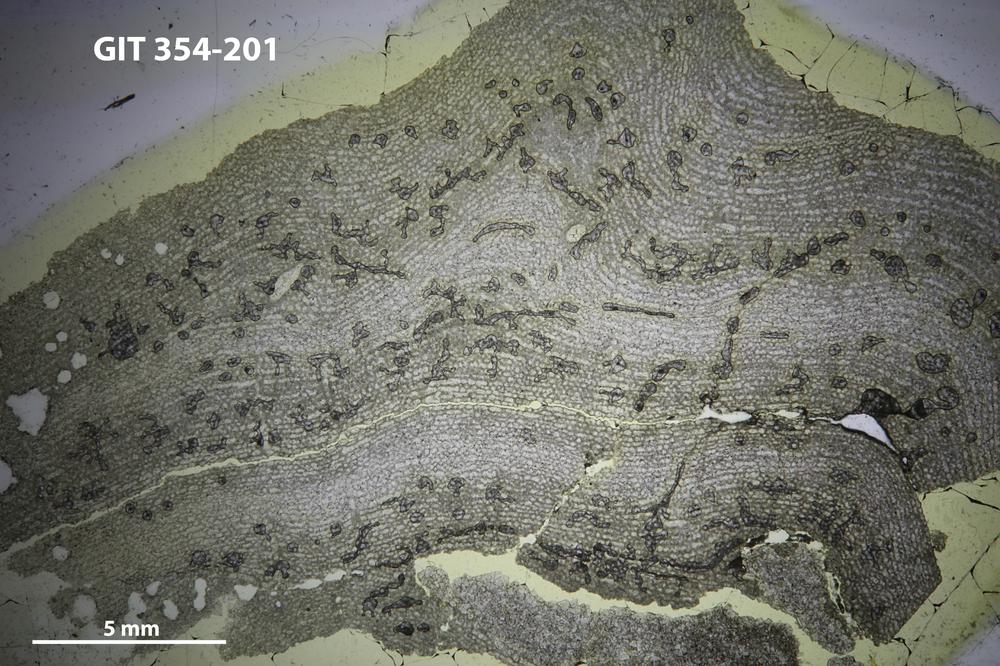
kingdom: Animalia
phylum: Porifera
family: Clathrodictyidae
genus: Clathrodictyon
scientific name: Clathrodictyon kudriavzevi
